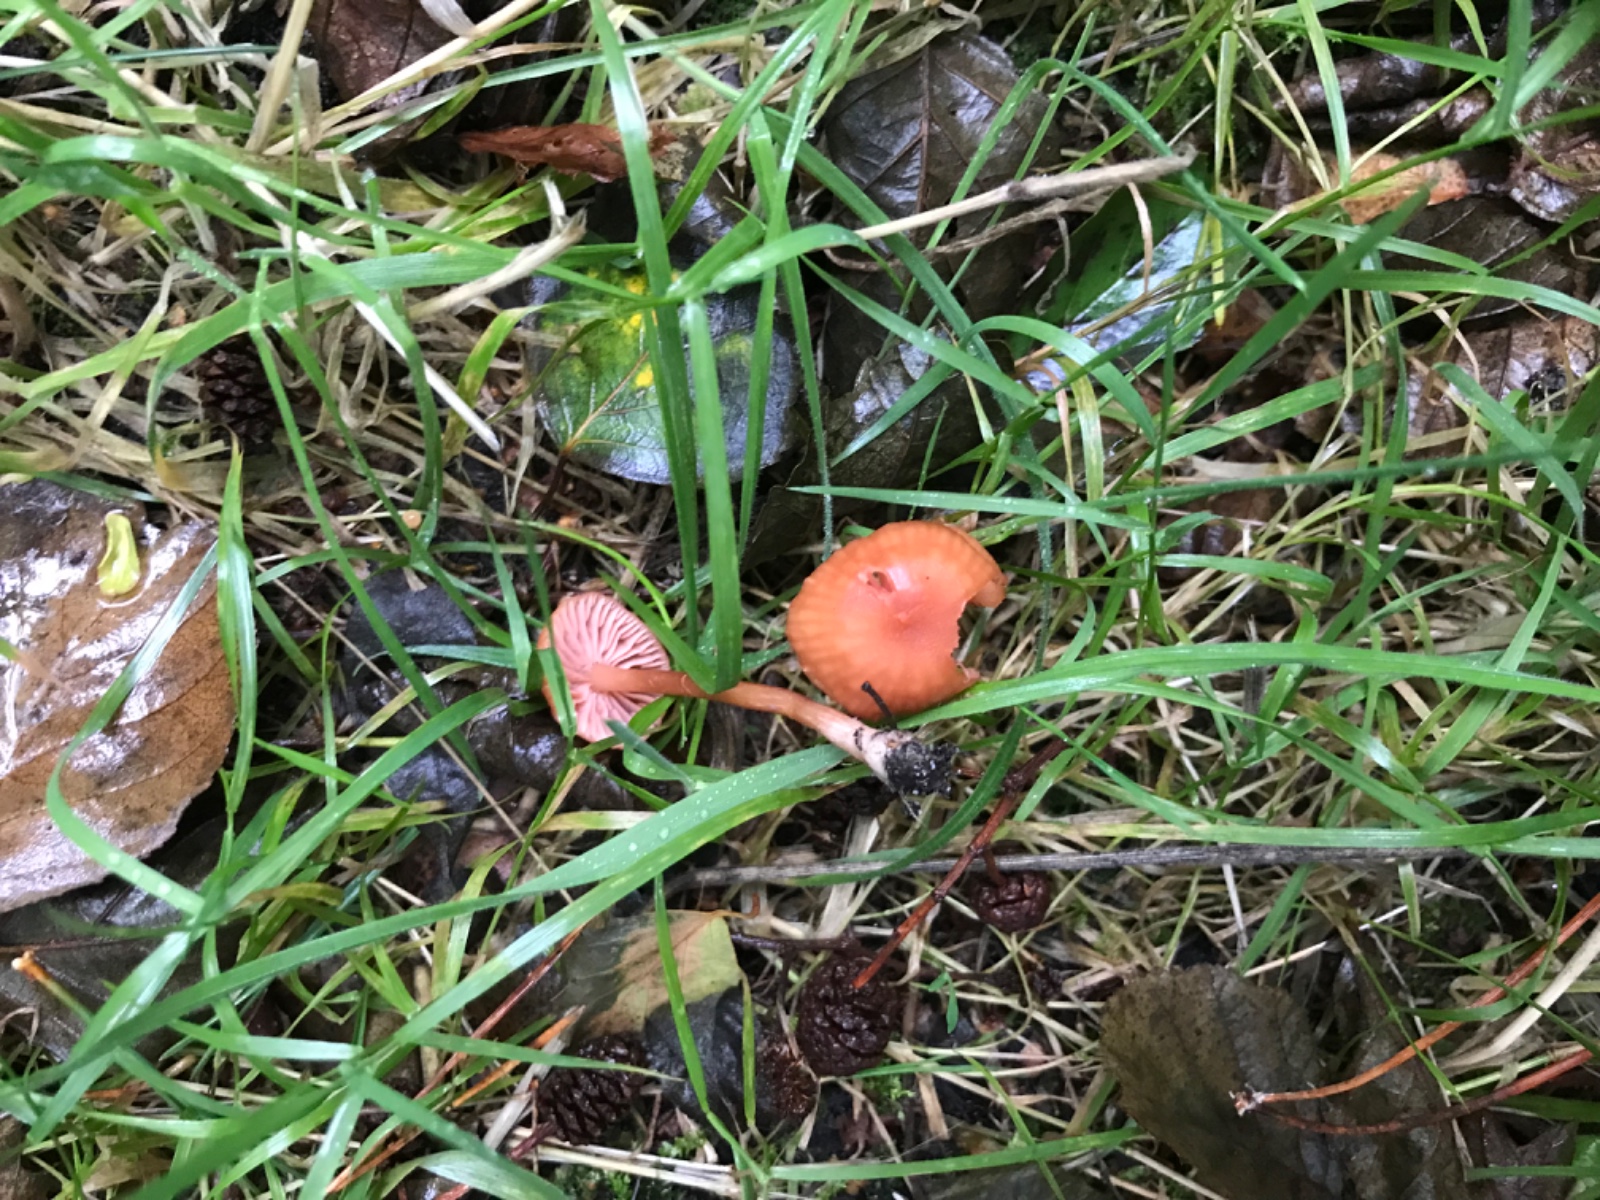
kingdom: Fungi
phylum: Basidiomycota
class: Agaricomycetes
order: Agaricales
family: Hydnangiaceae
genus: Laccaria
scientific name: Laccaria laccata
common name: rød ametysthat
